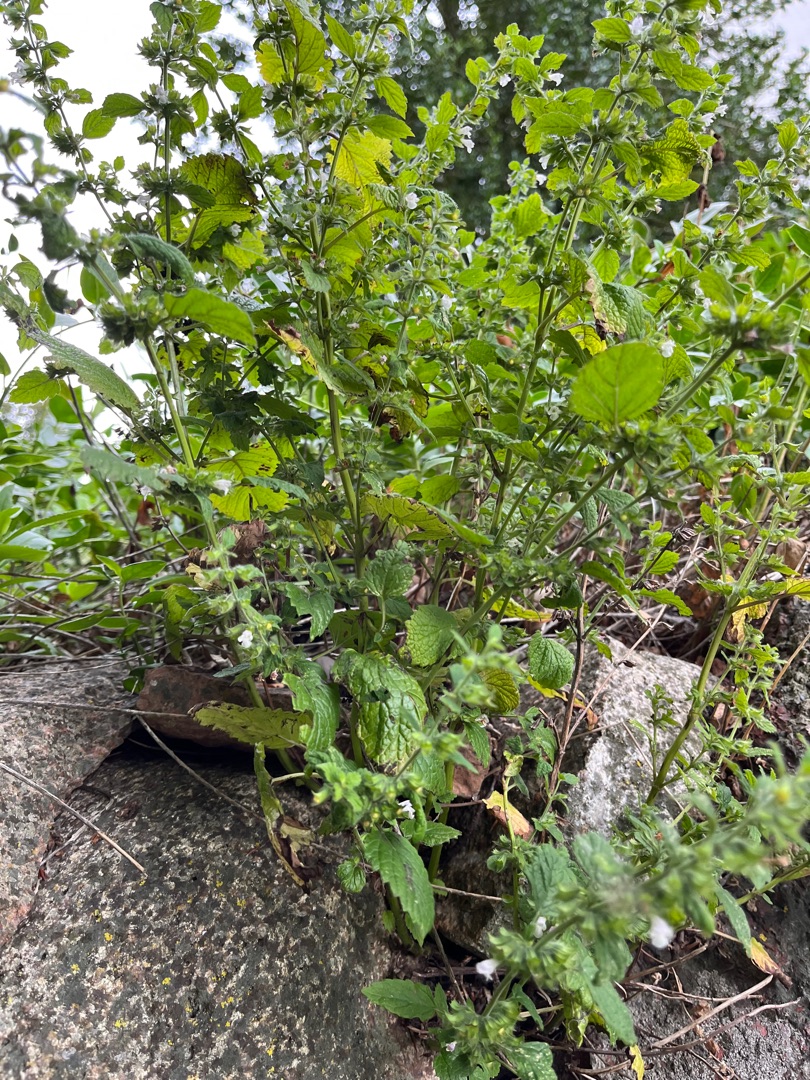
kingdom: Plantae
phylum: Tracheophyta
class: Magnoliopsida
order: Lamiales
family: Lamiaceae
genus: Melissa
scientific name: Melissa officinalis
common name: Citronmelisse
